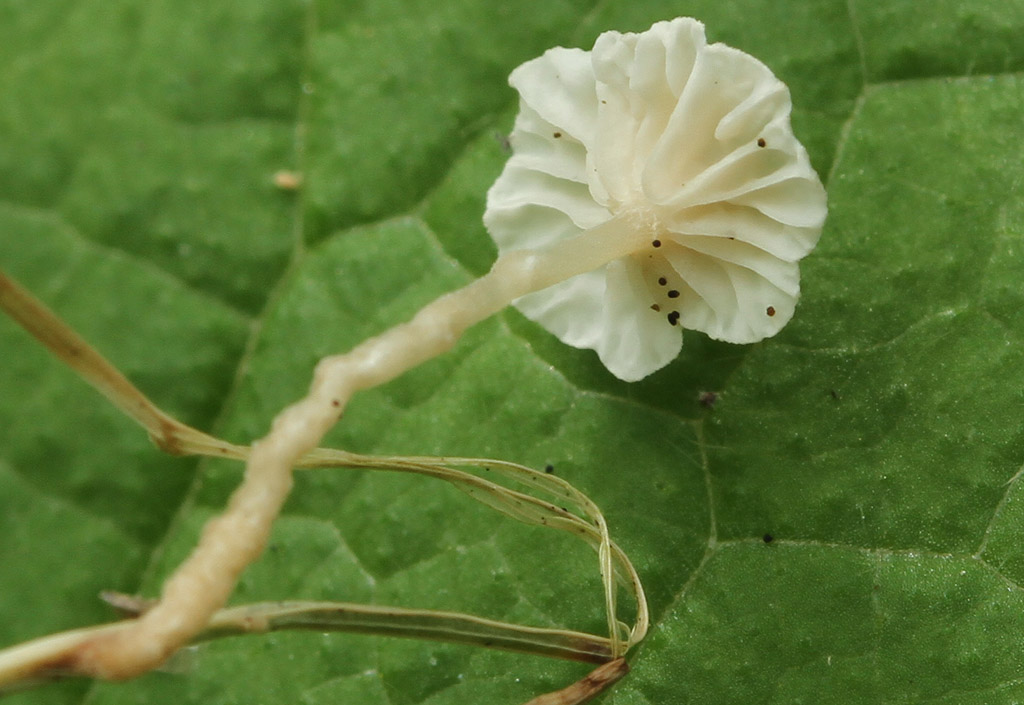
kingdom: Fungi
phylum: Basidiomycota
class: Agaricomycetes
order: Agaricales
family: Omphalotaceae
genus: Collybiopsis
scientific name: Collybiopsis vaillantii
